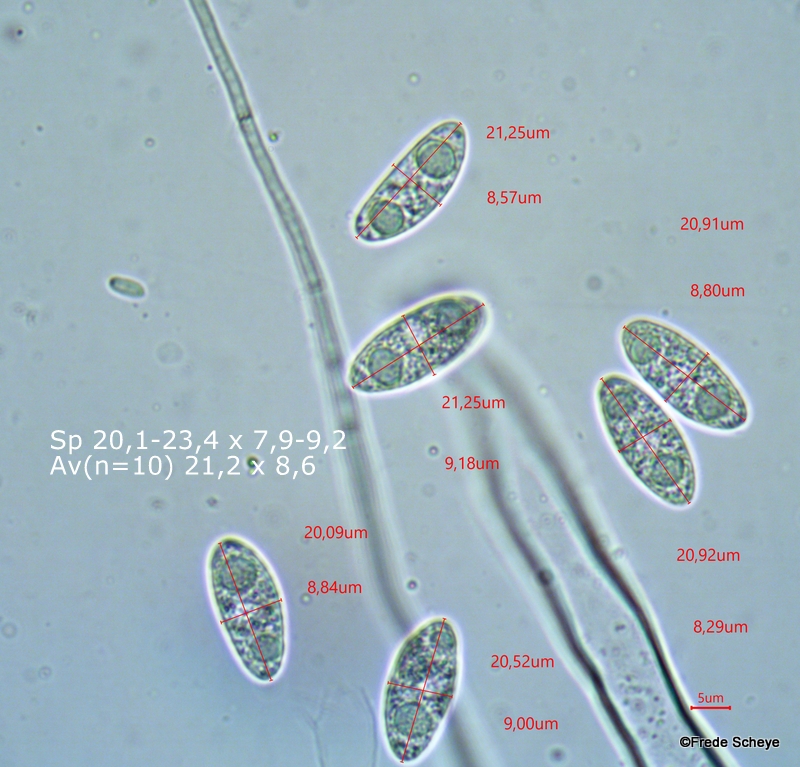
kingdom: Fungi
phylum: Ascomycota
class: Leotiomycetes
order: Helotiales
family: Rutstroemiaceae
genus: Rutstroemia
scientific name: Rutstroemia alni
